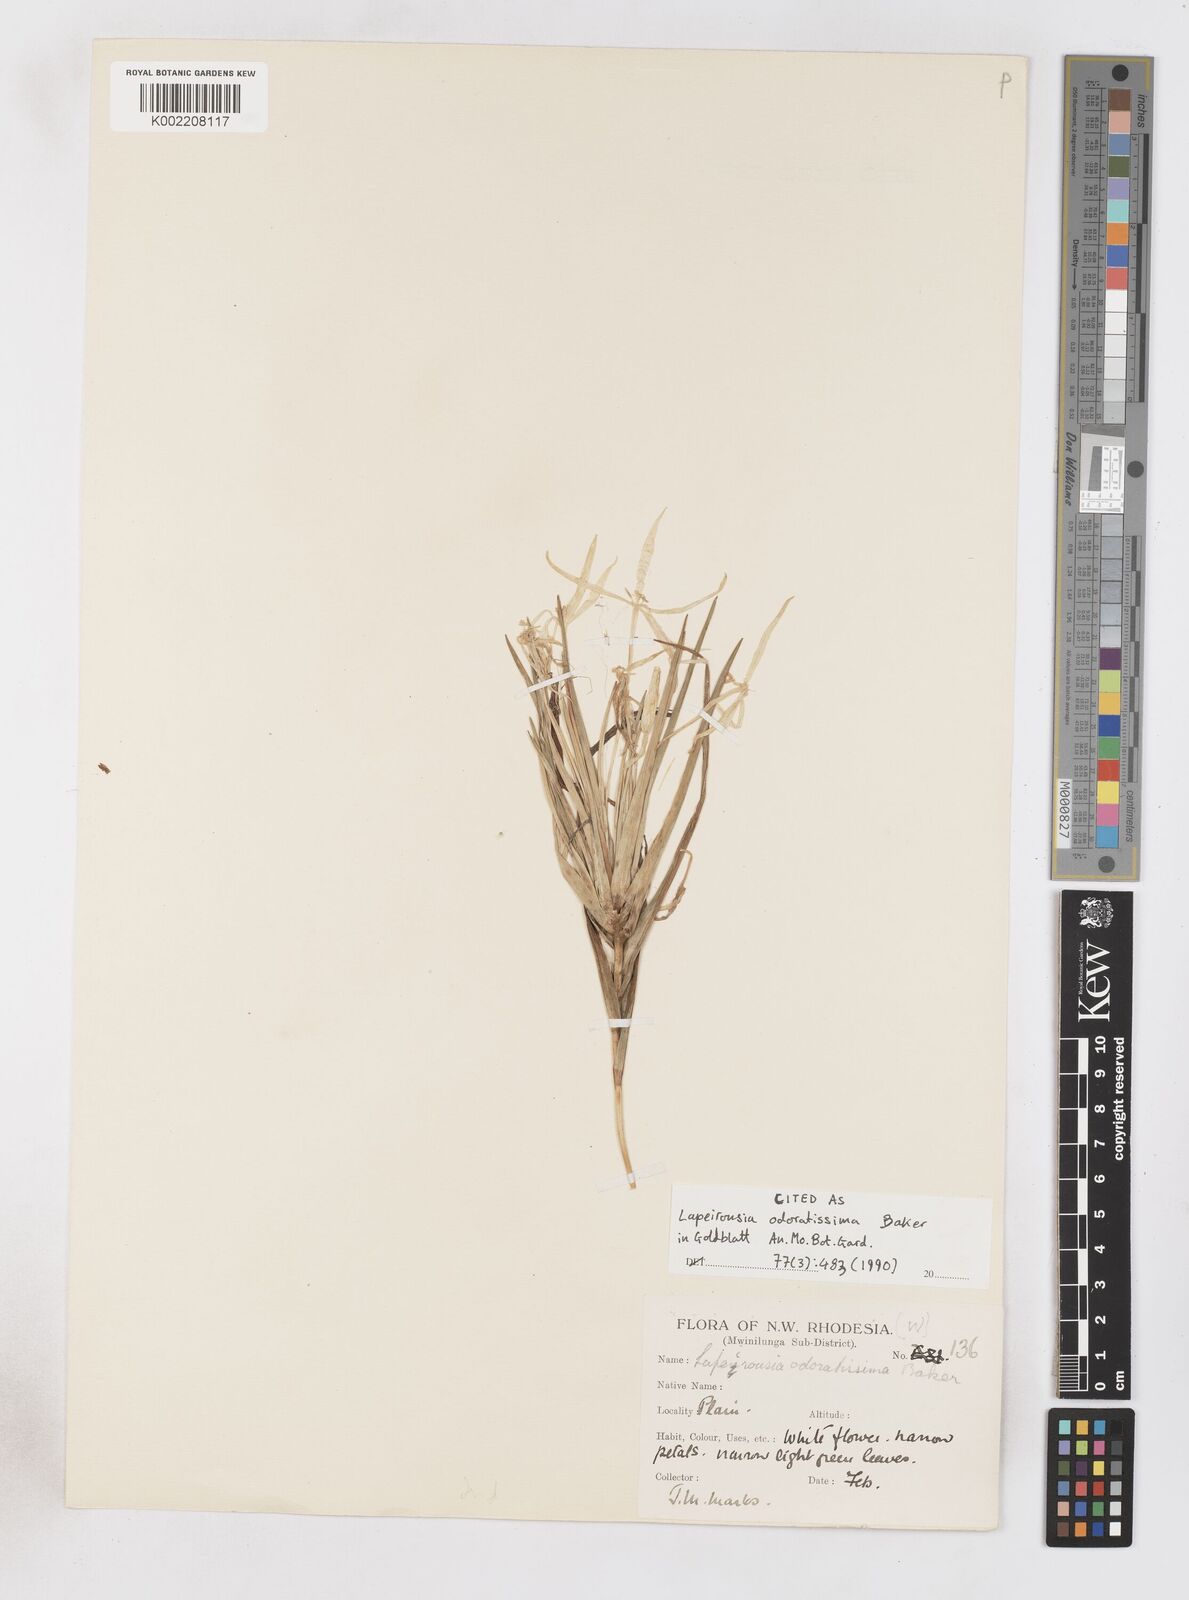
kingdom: Plantae
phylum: Tracheophyta
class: Liliopsida
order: Asparagales
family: Iridaceae
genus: Lapeirousia
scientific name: Lapeirousia odoratissima
